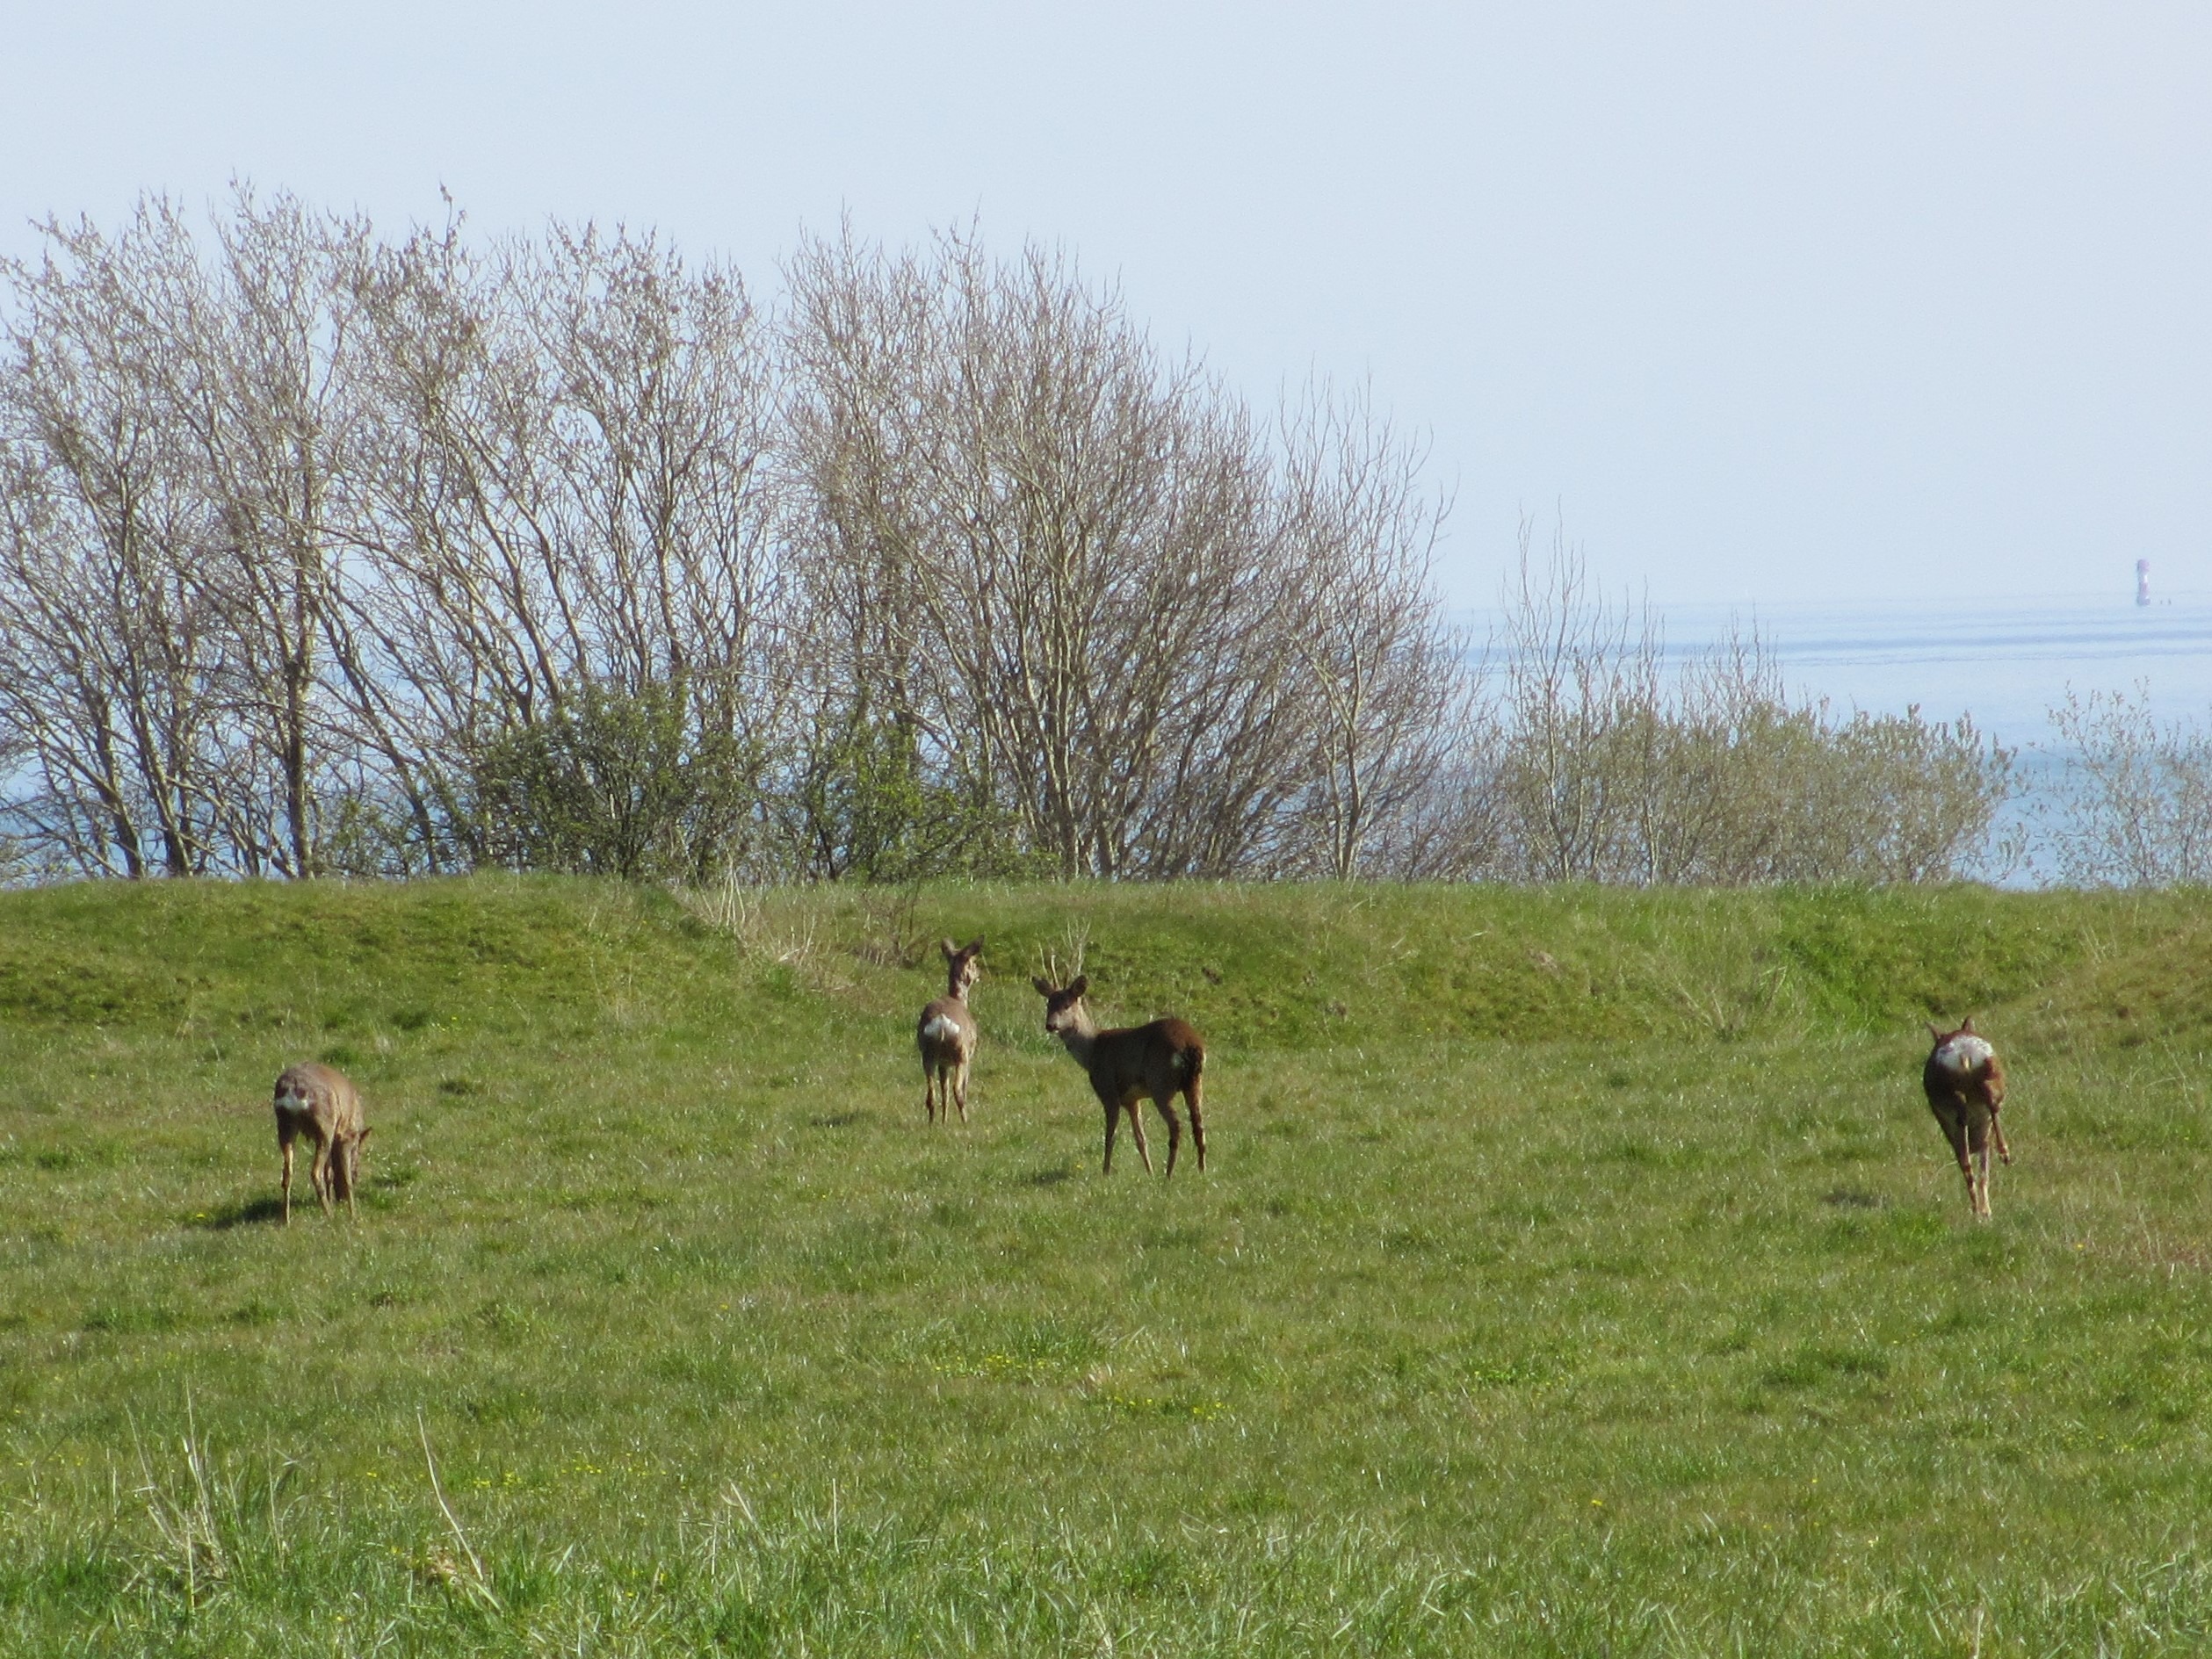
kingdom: Animalia
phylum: Chordata
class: Mammalia
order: Artiodactyla
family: Cervidae
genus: Capreolus
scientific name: Capreolus capreolus
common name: Rådyr
